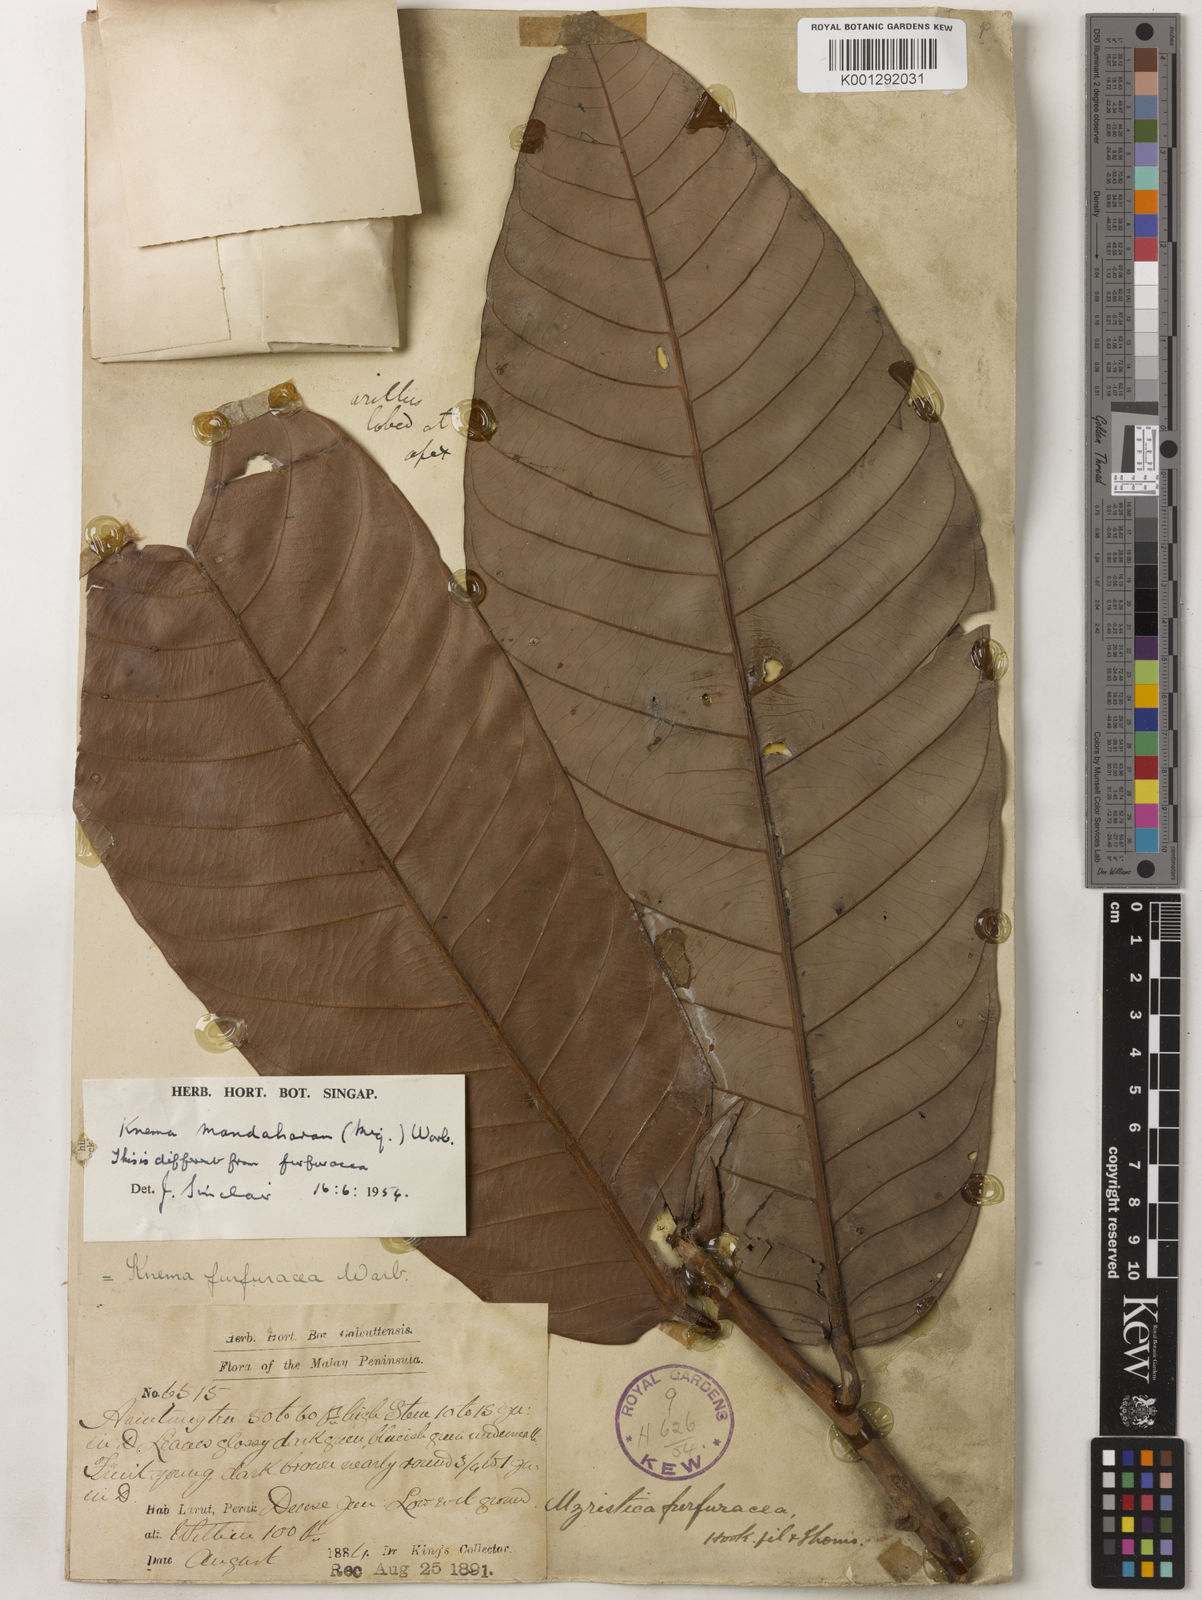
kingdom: Plantae
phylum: Tracheophyta
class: Magnoliopsida
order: Magnoliales
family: Myristicaceae
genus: Knema
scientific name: Knema mandaharan
